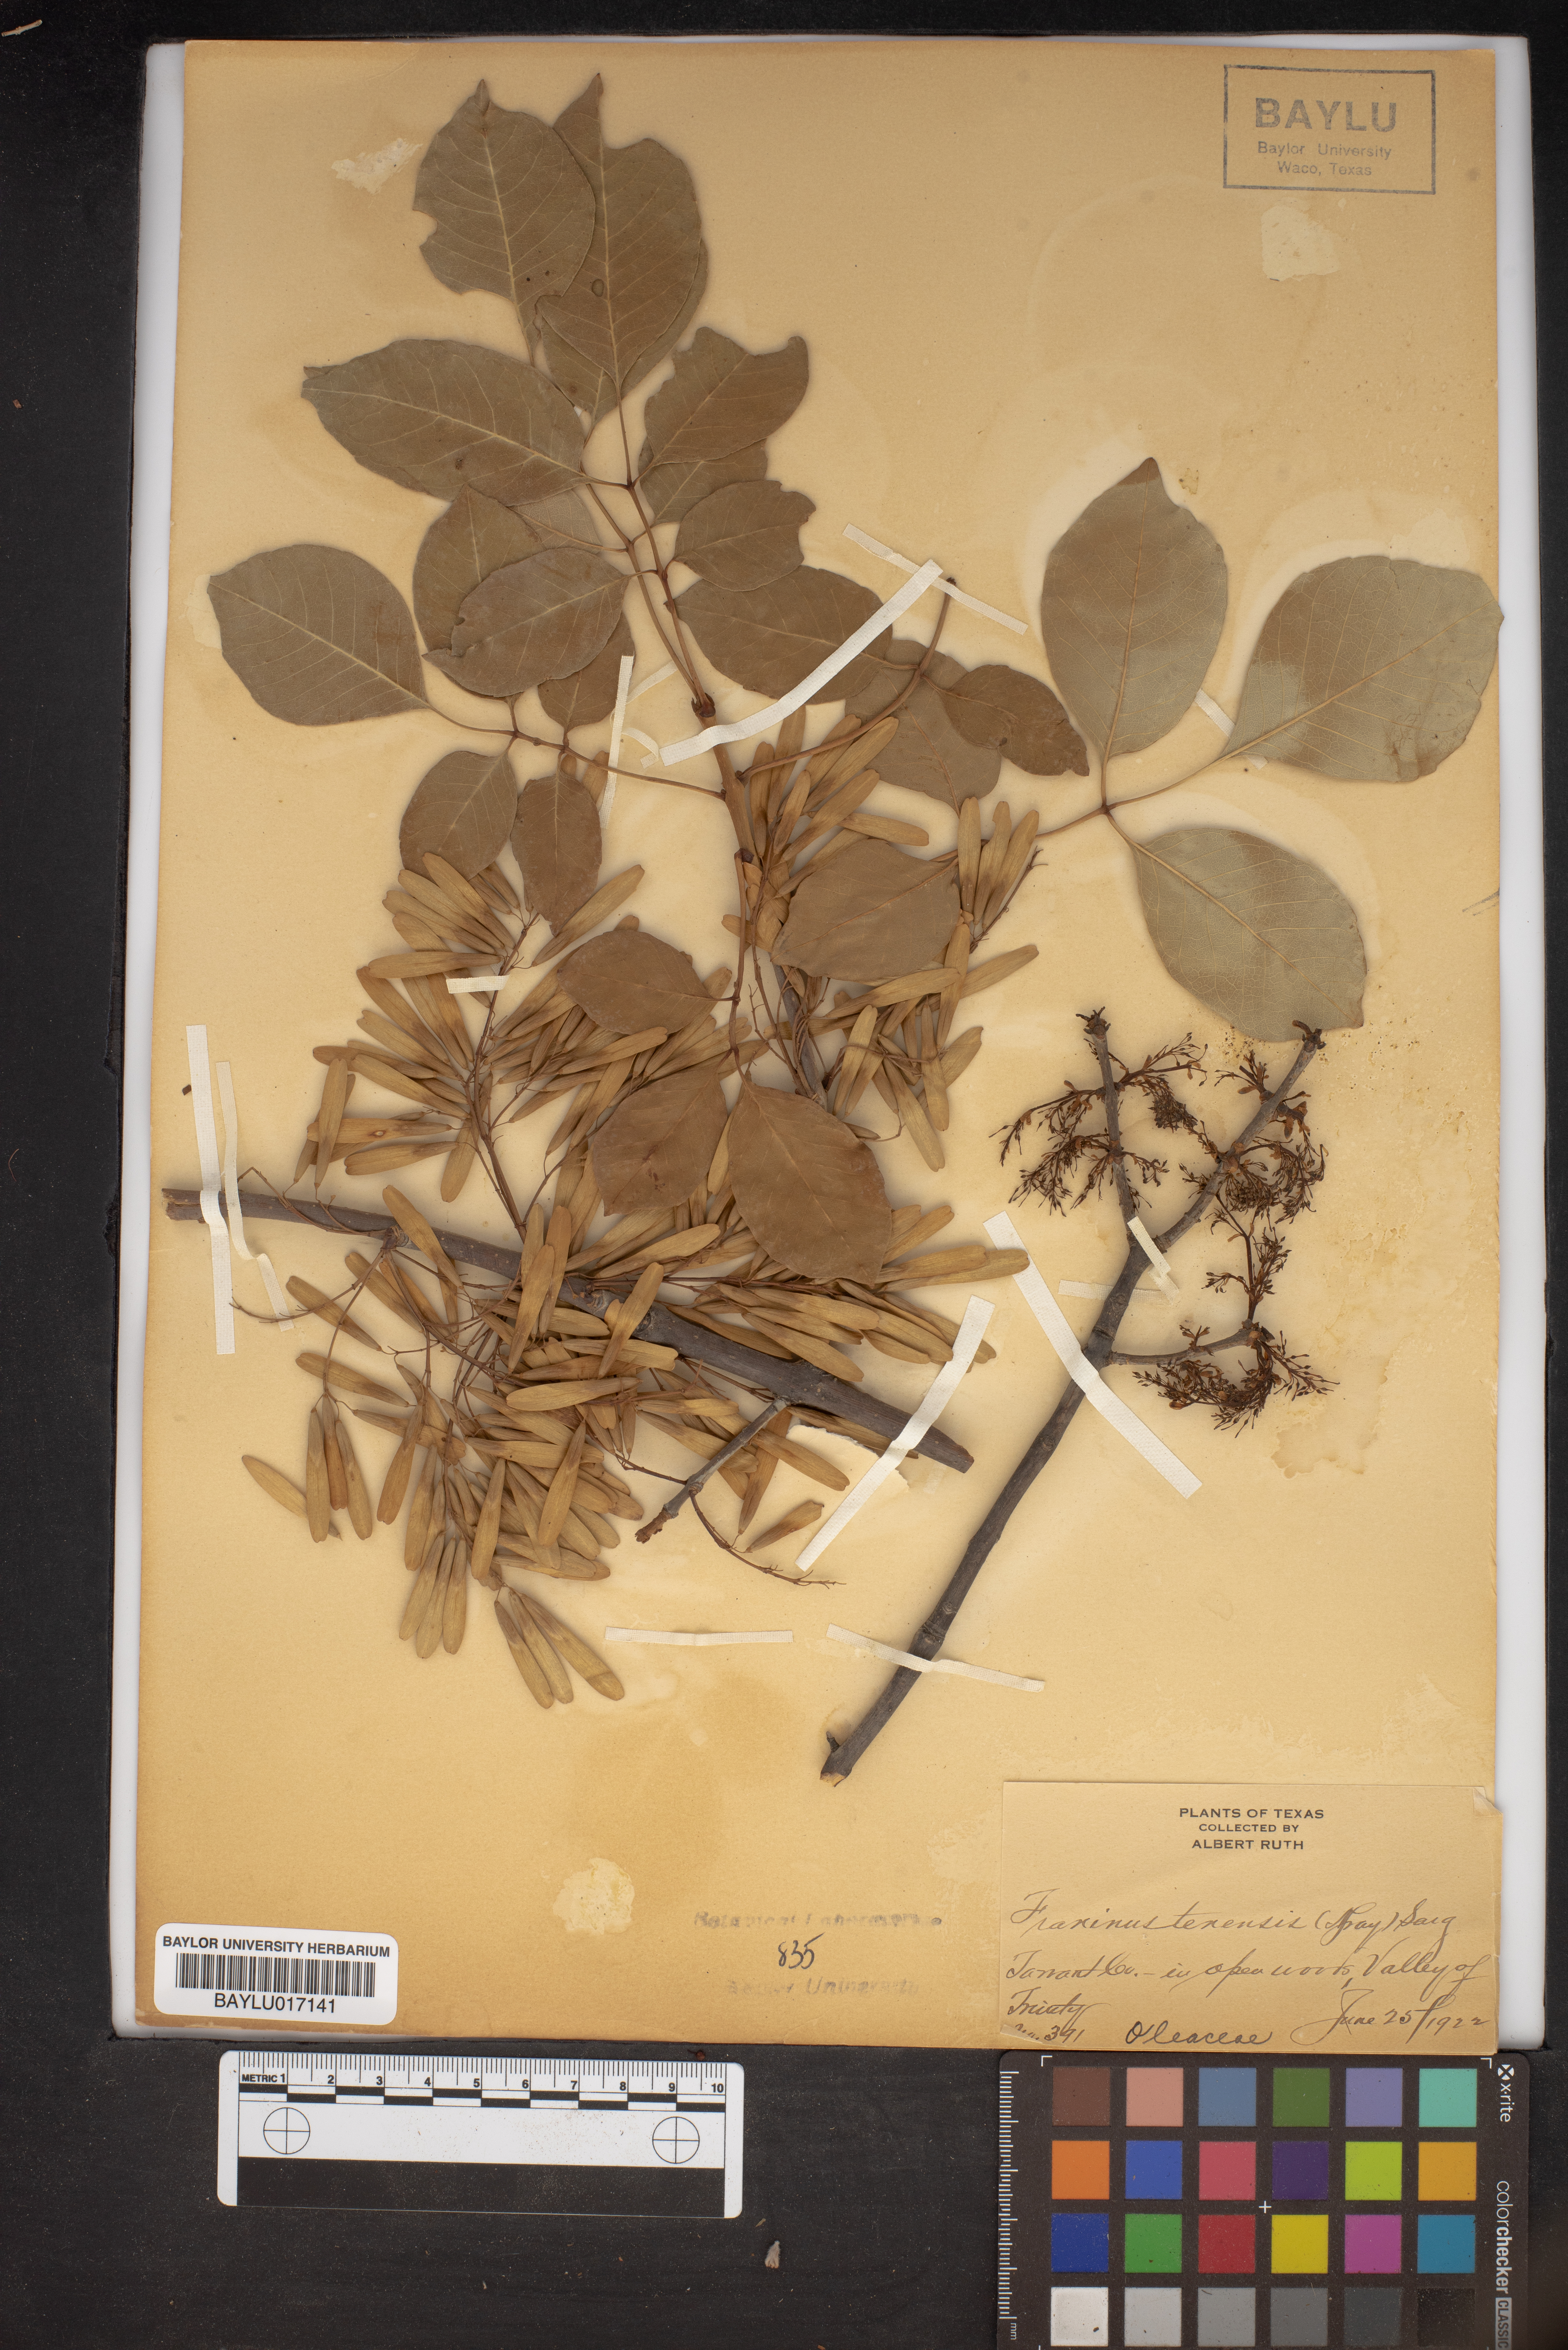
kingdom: Plantae
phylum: Tracheophyta
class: Magnoliopsida
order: Lamiales
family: Oleaceae
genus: Fraxinus
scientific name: Fraxinus albicans
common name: Texas ash
